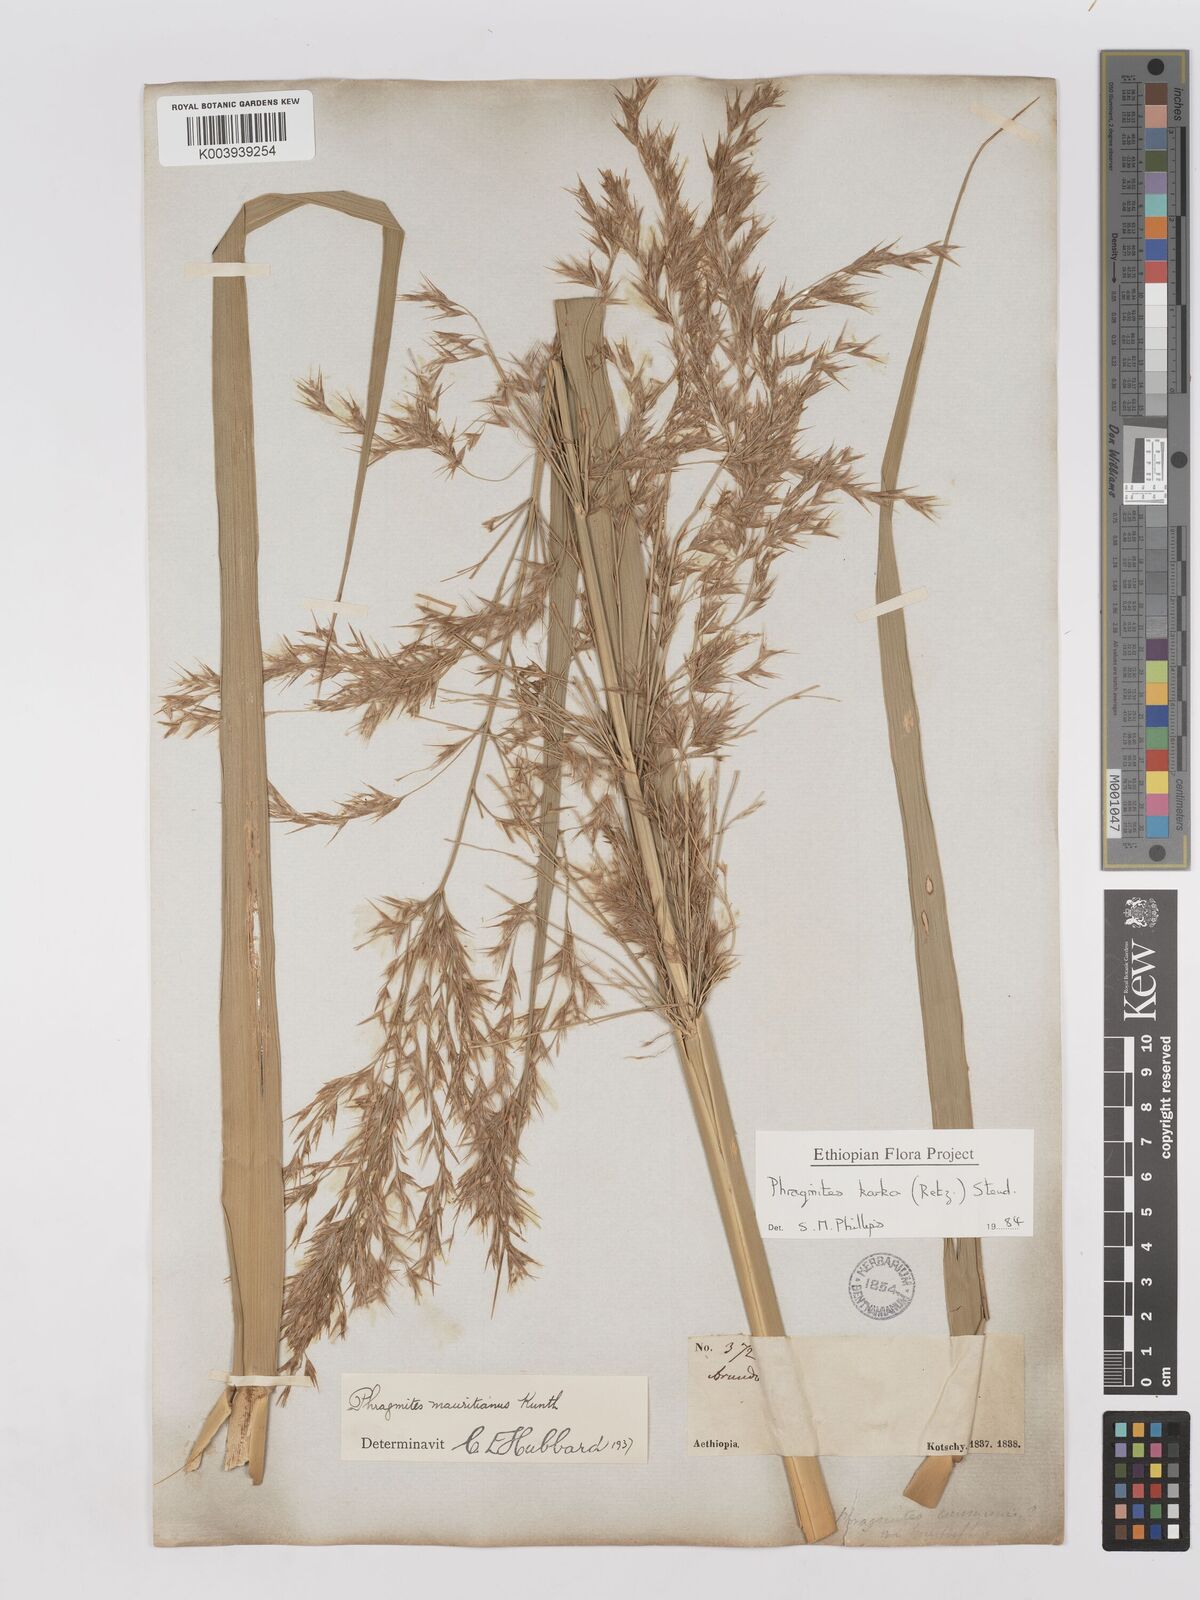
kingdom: Plantae
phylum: Tracheophyta
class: Liliopsida
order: Poales
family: Poaceae
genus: Phragmites
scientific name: Phragmites karka
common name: Tropical reed
